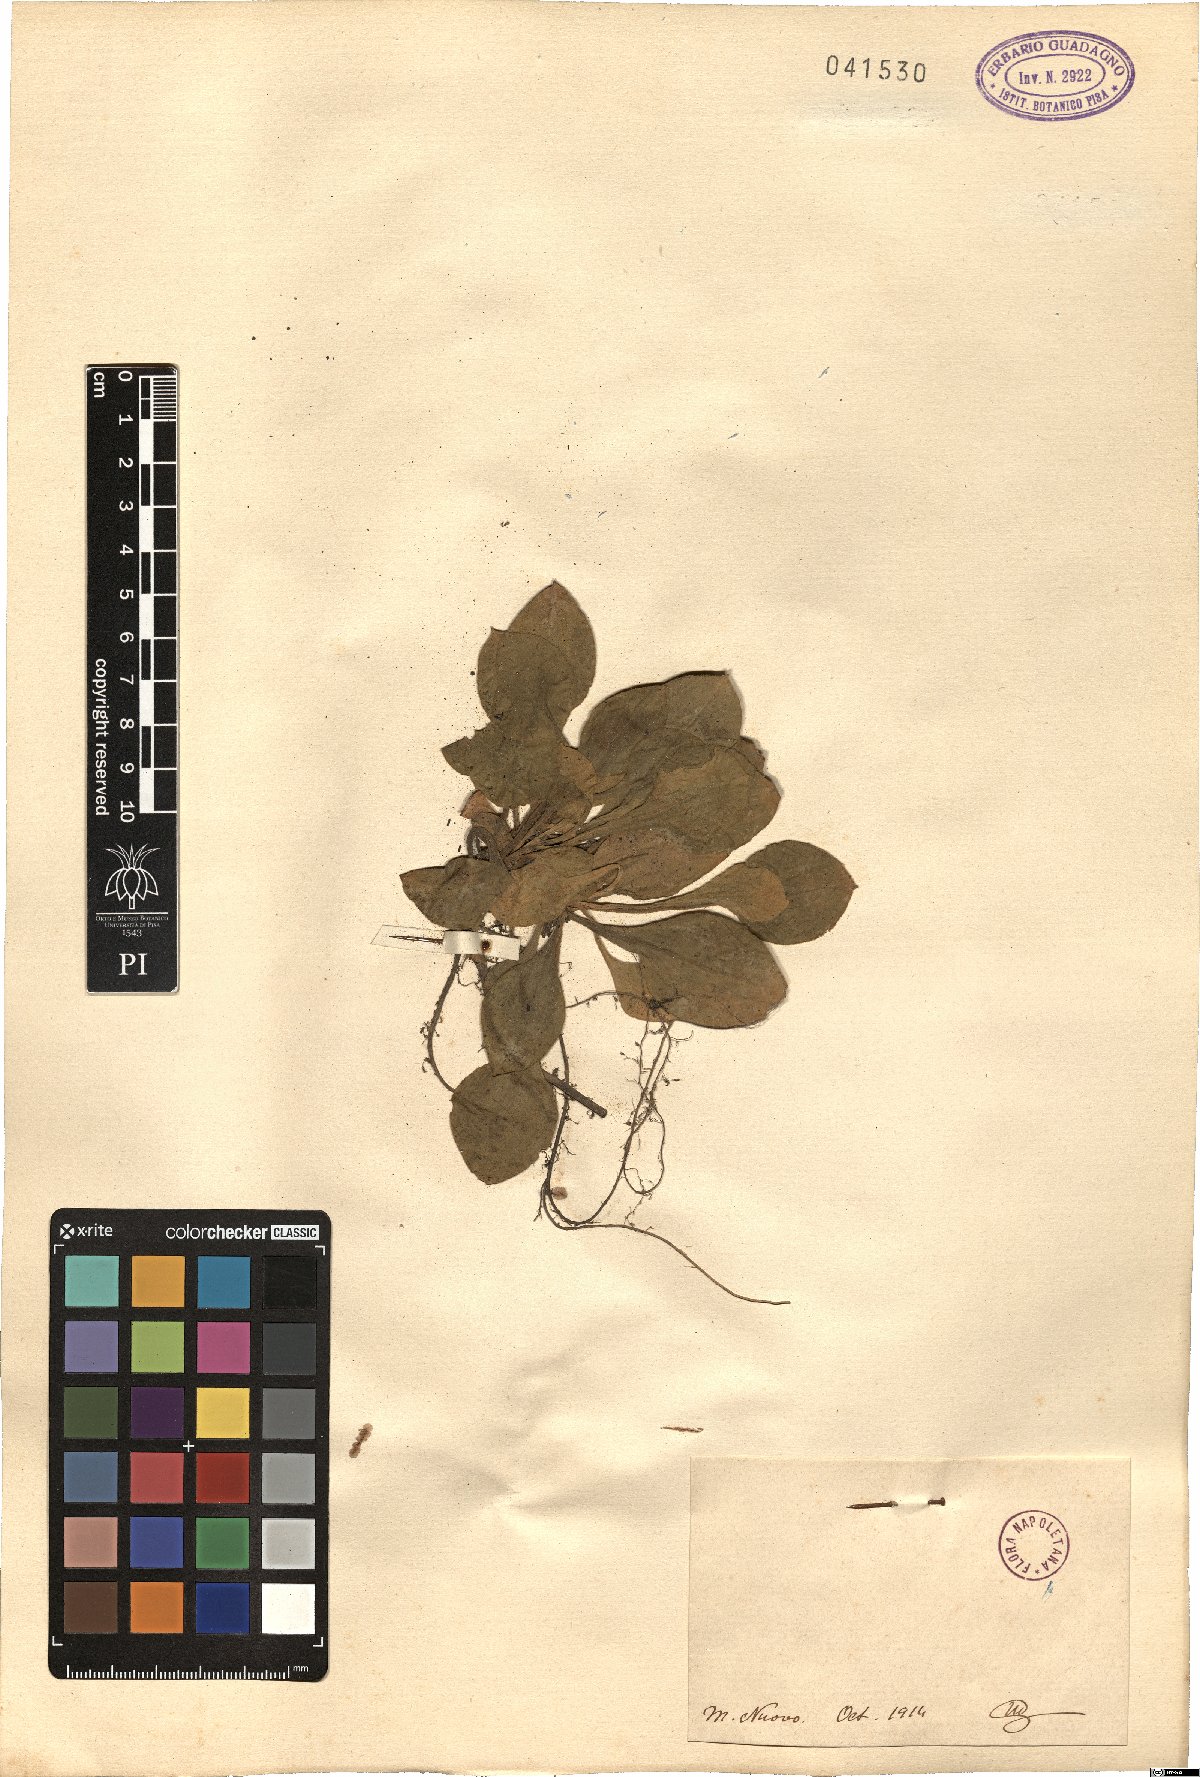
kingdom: Plantae
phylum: Tracheophyta
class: Magnoliopsida
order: Caryophyllales
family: Caryophyllaceae
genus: Silene
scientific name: Silene
